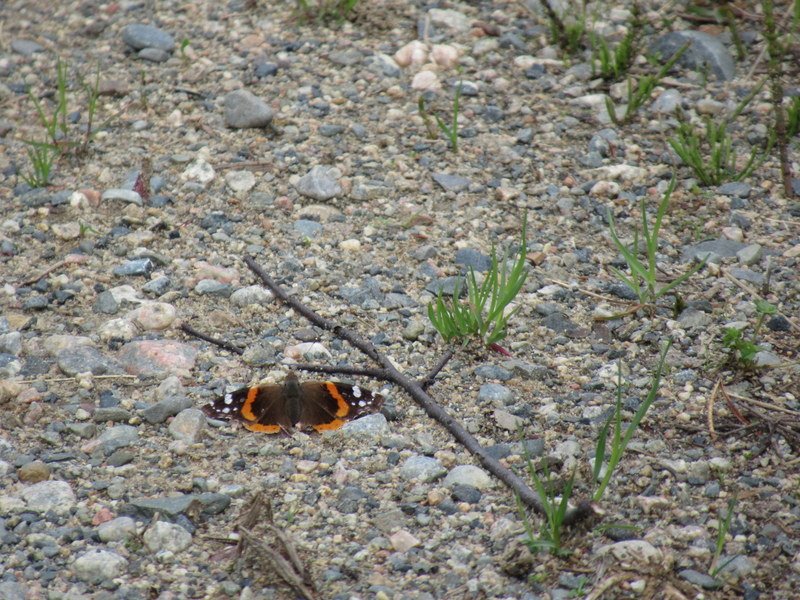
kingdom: Animalia
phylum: Arthropoda
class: Insecta
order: Lepidoptera
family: Nymphalidae
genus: Vanessa
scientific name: Vanessa atalanta
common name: Red Admiral
